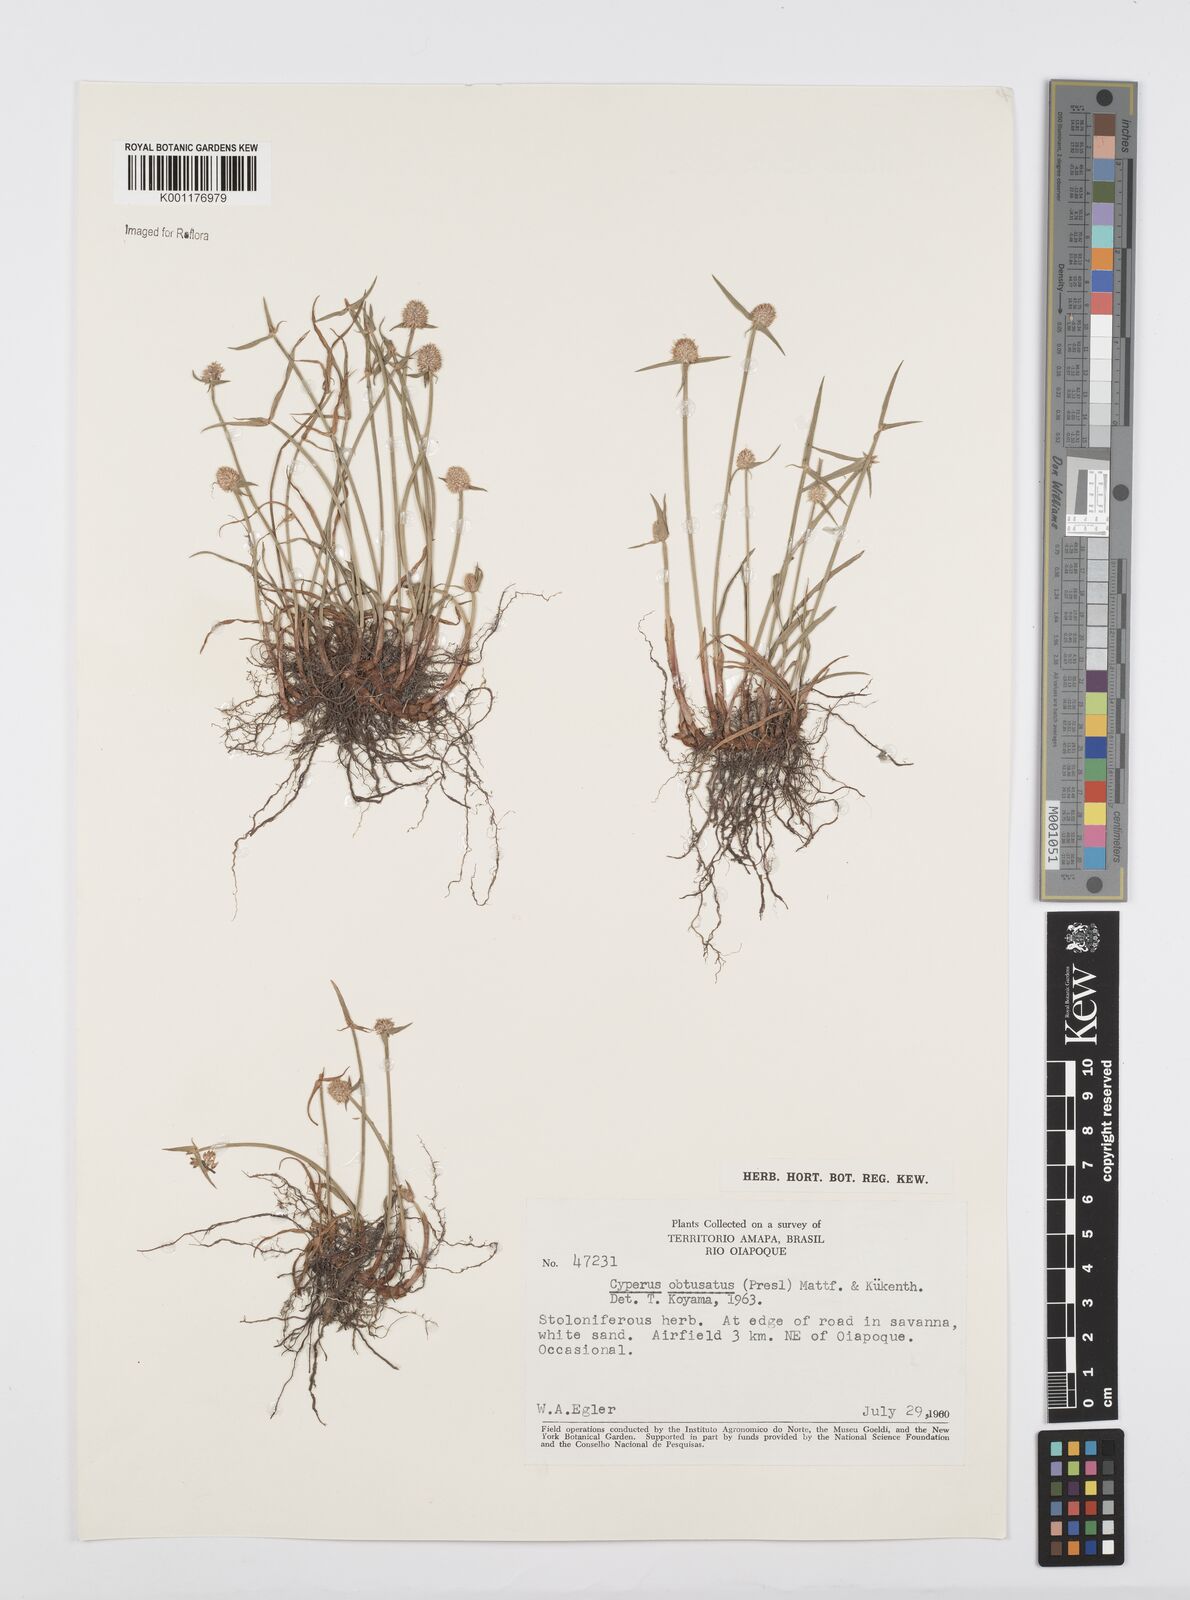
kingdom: Plantae
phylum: Tracheophyta
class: Liliopsida
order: Poales
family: Cyperaceae
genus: Cyperus
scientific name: Cyperus obtusatus
